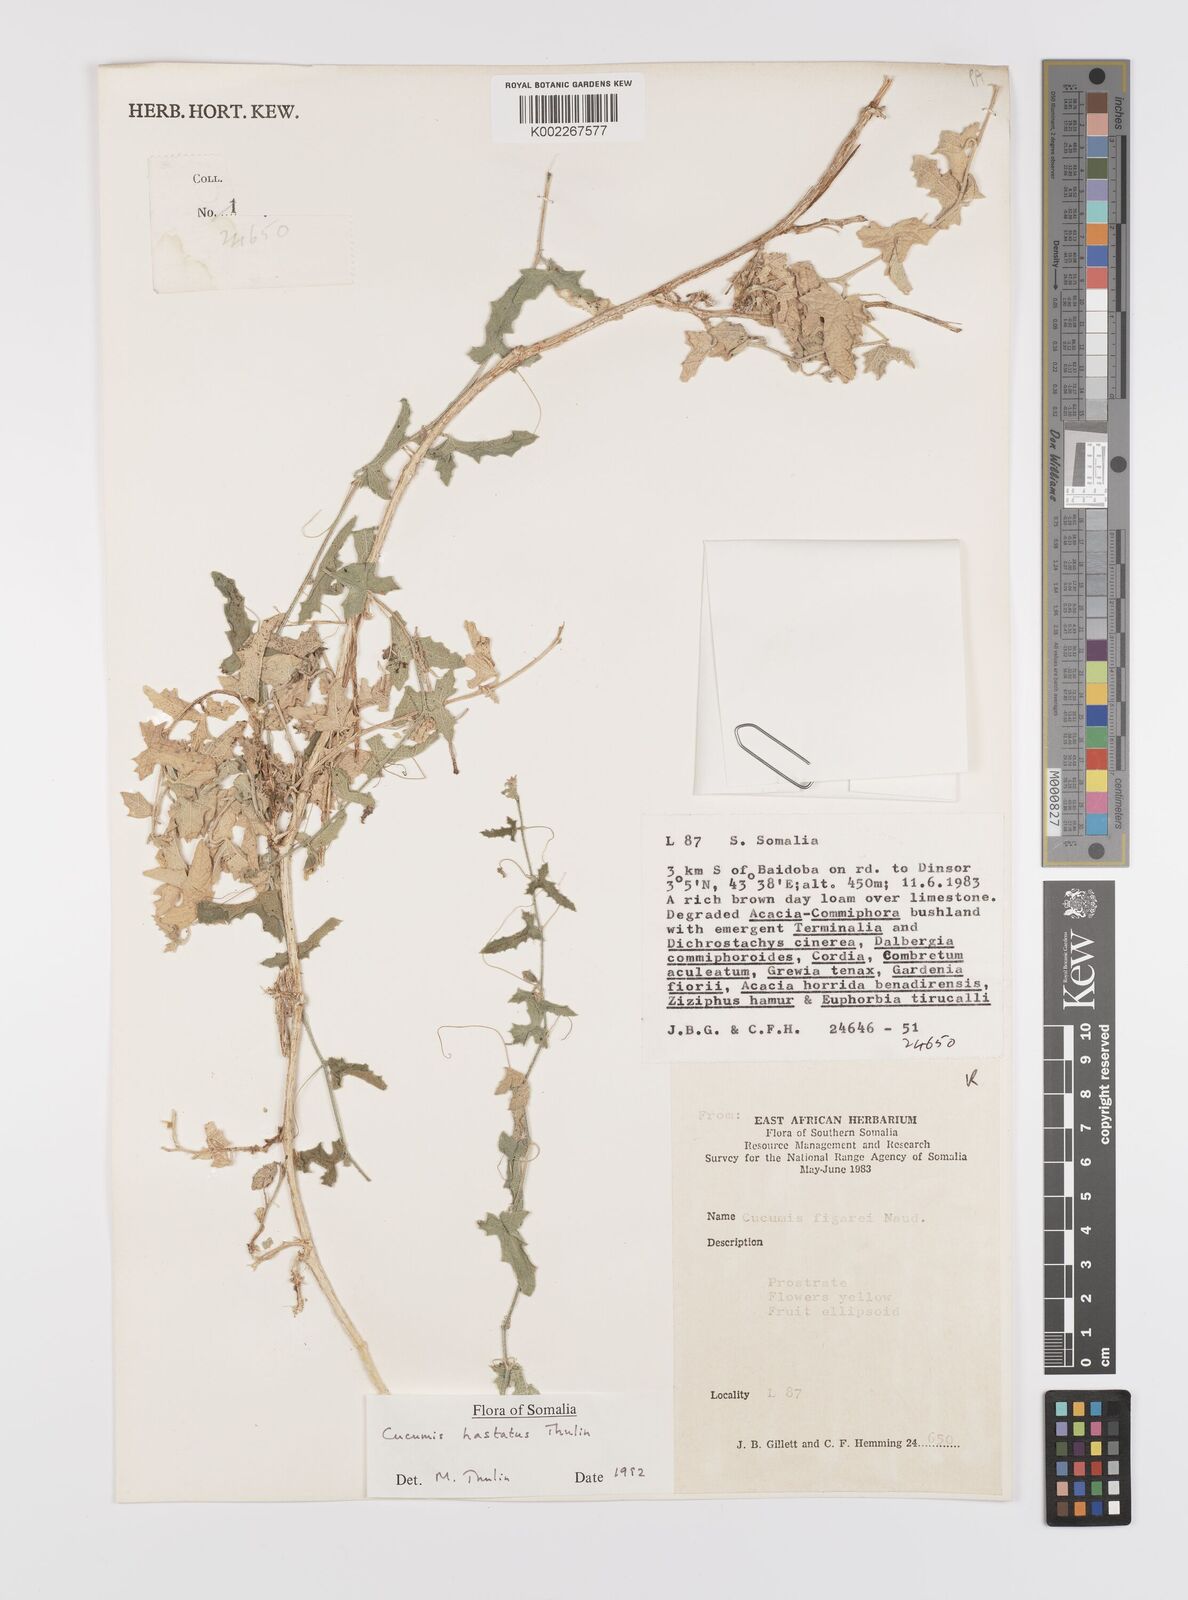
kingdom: Plantae
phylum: Tracheophyta
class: Magnoliopsida
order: Cucurbitales
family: Cucurbitaceae
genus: Cucumis
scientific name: Cucumis hastatus
